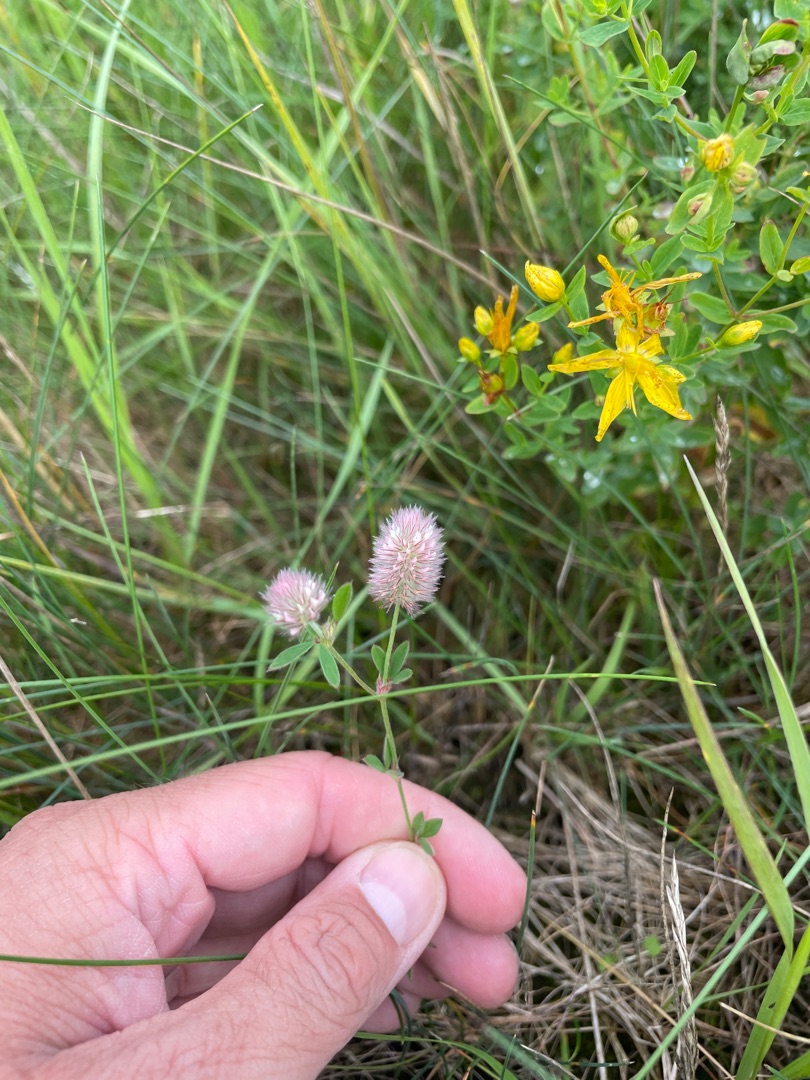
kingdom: Plantae
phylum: Tracheophyta
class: Magnoliopsida
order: Fabales
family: Fabaceae
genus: Trifolium
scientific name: Trifolium arvense
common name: Hare-kløver
